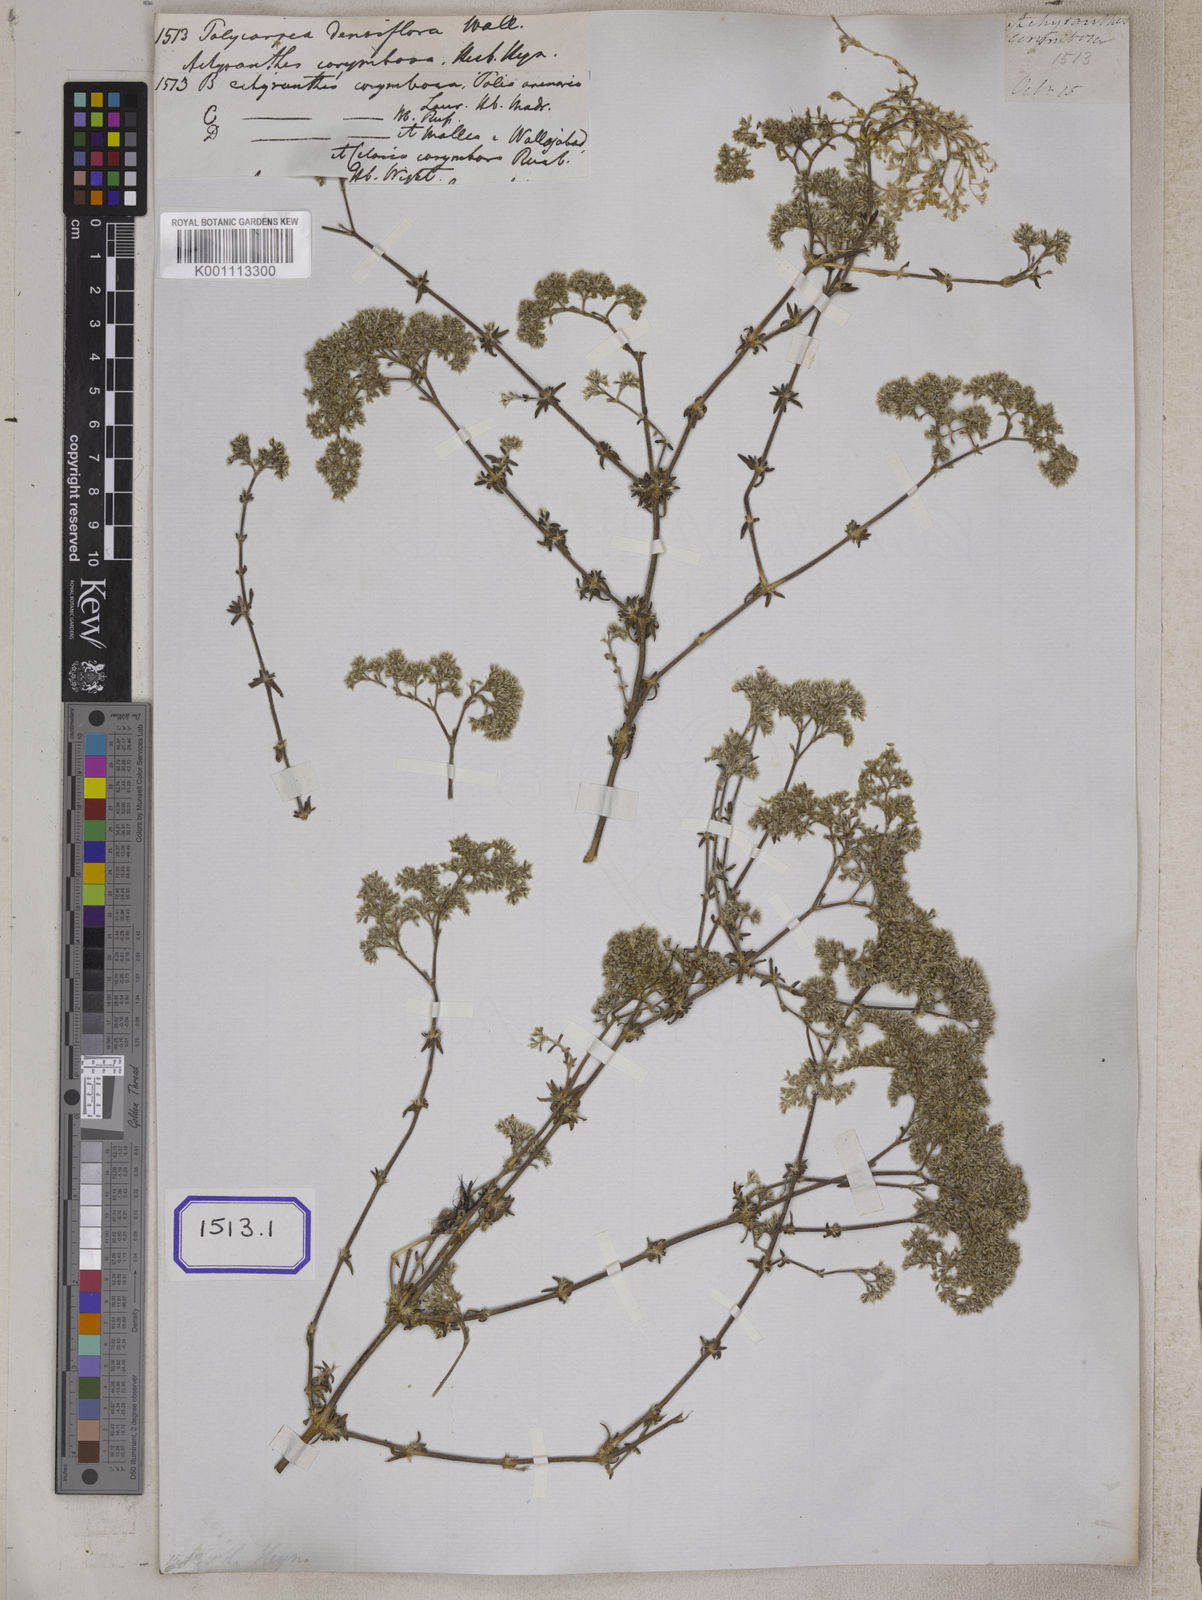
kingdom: Plantae
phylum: Tracheophyta
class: Magnoliopsida
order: Caryophyllales
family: Caryophyllaceae
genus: Polycarpaea
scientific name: Polycarpaea corymbosa
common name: Oldman's cap
